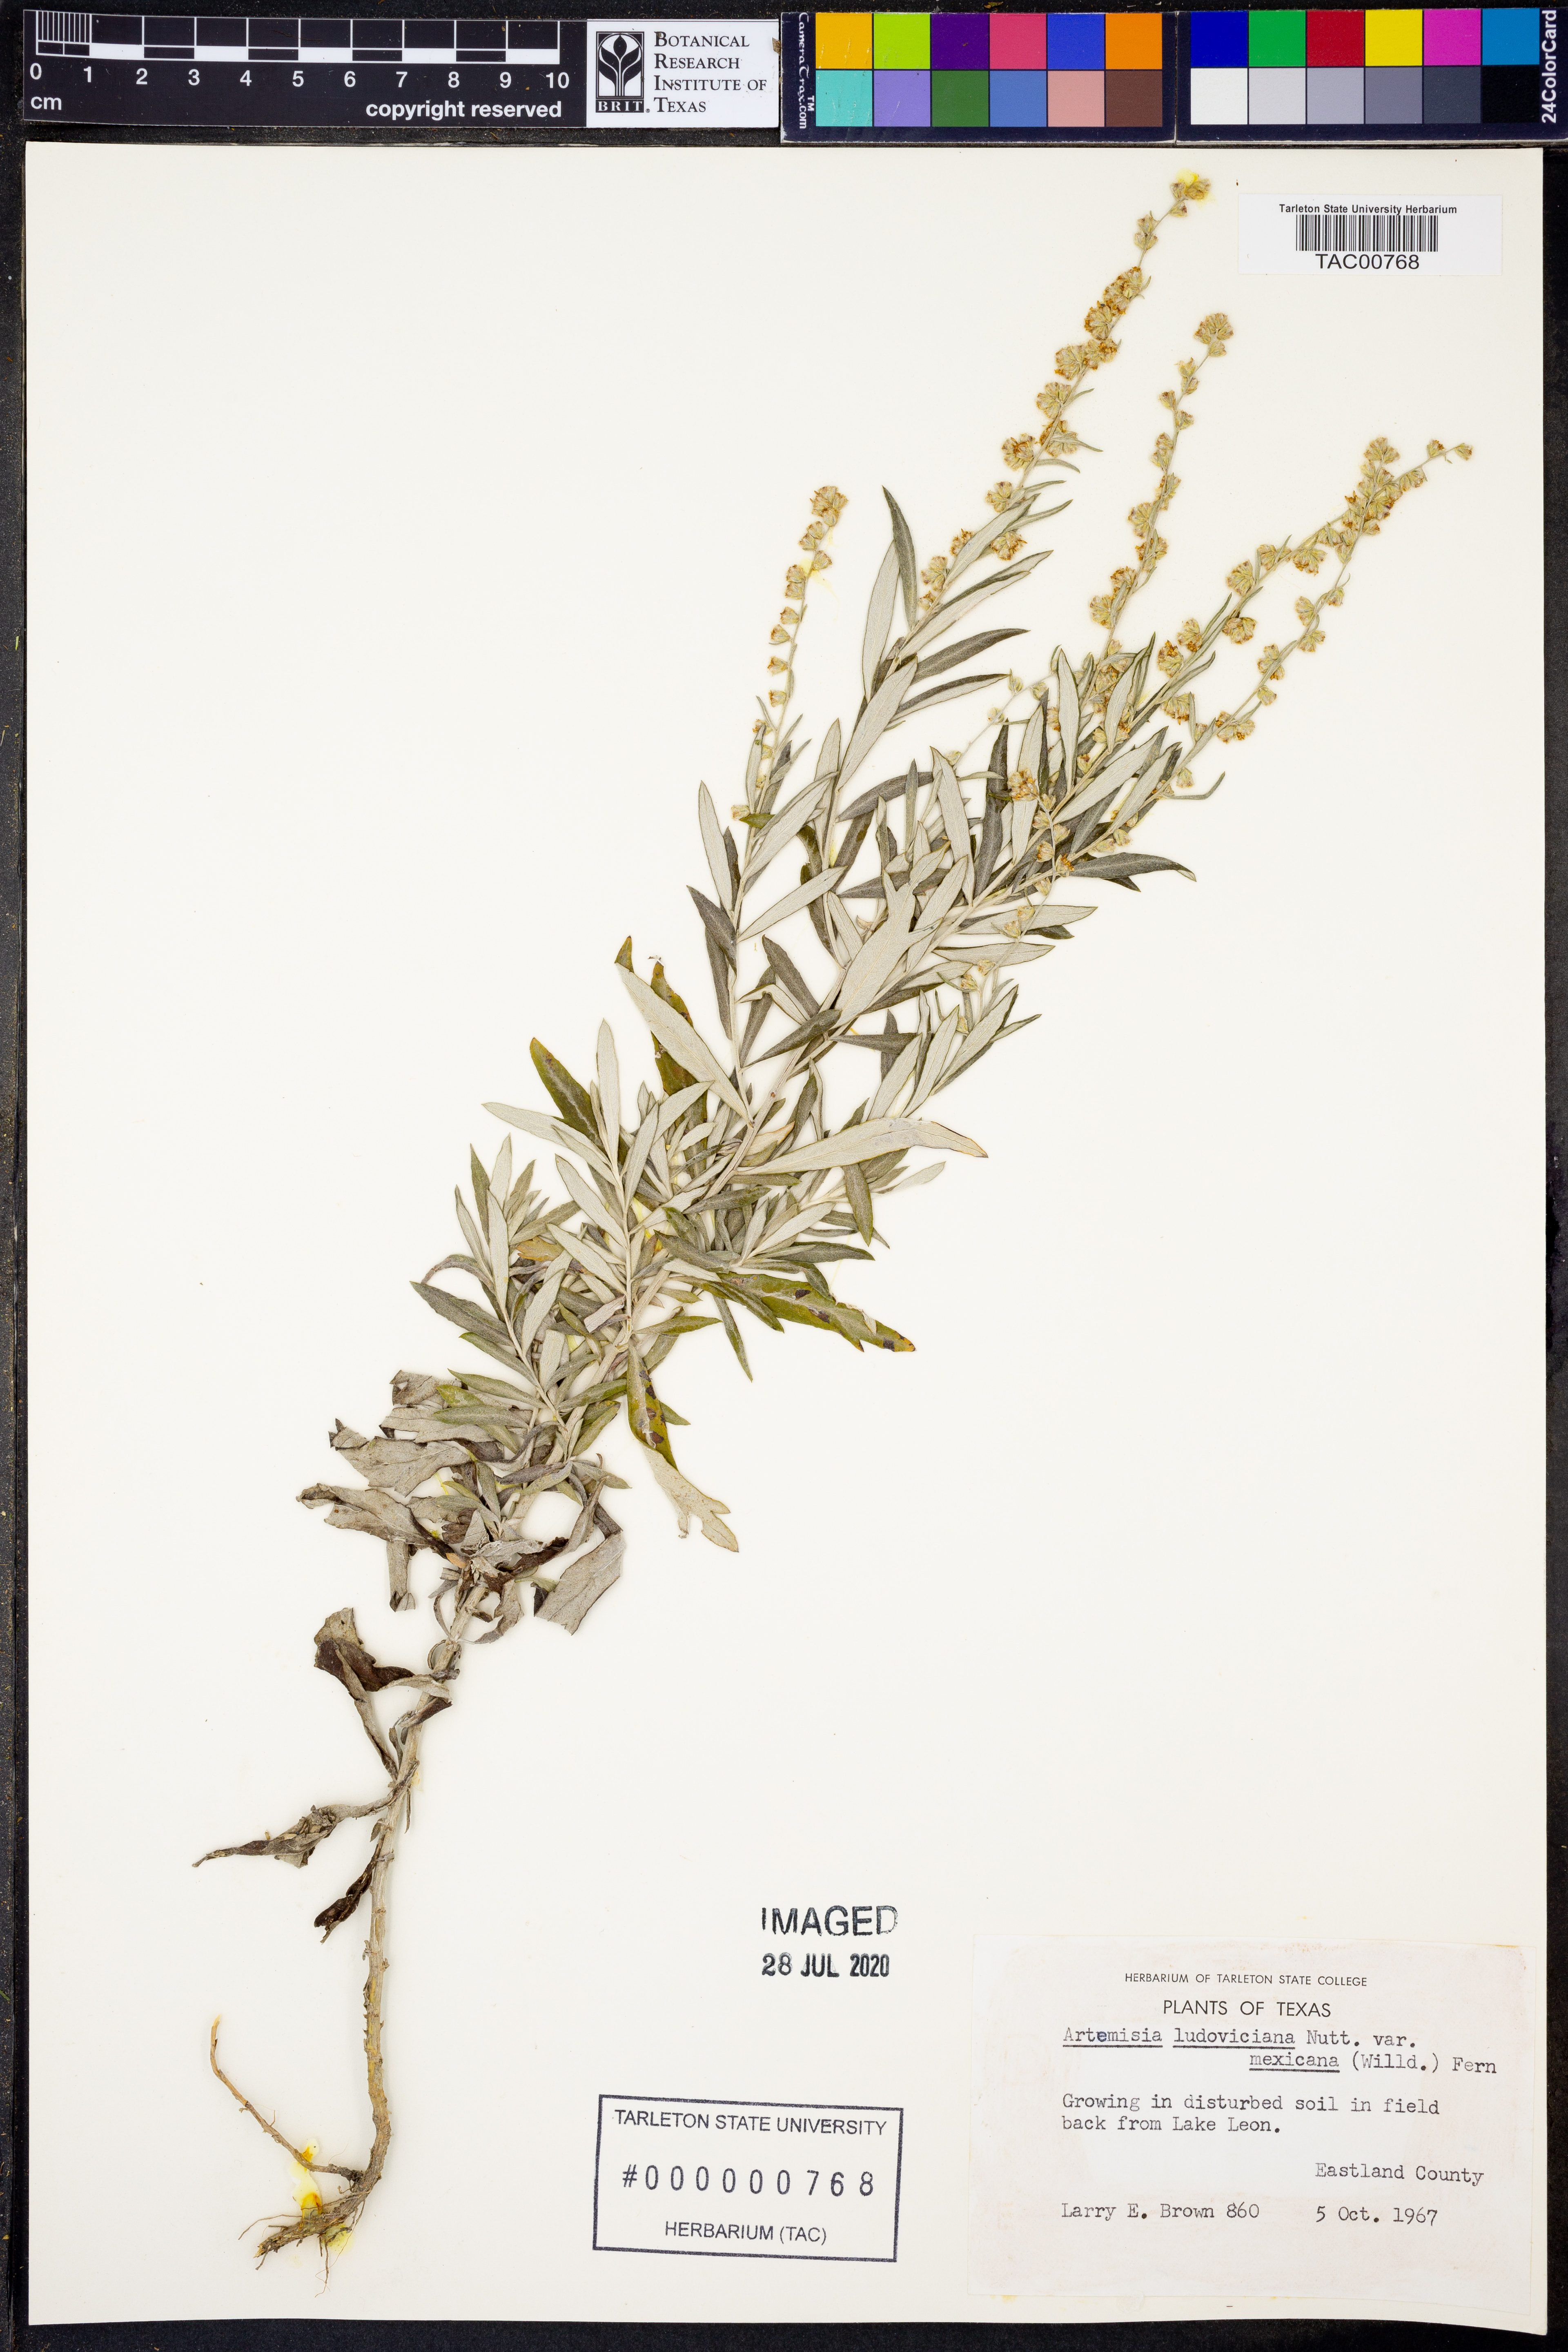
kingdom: Plantae
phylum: Tracheophyta
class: Magnoliopsida
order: Asterales
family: Asteraceae
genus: Artemisia
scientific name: Artemisia ludoviciana
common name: Western mugwort
